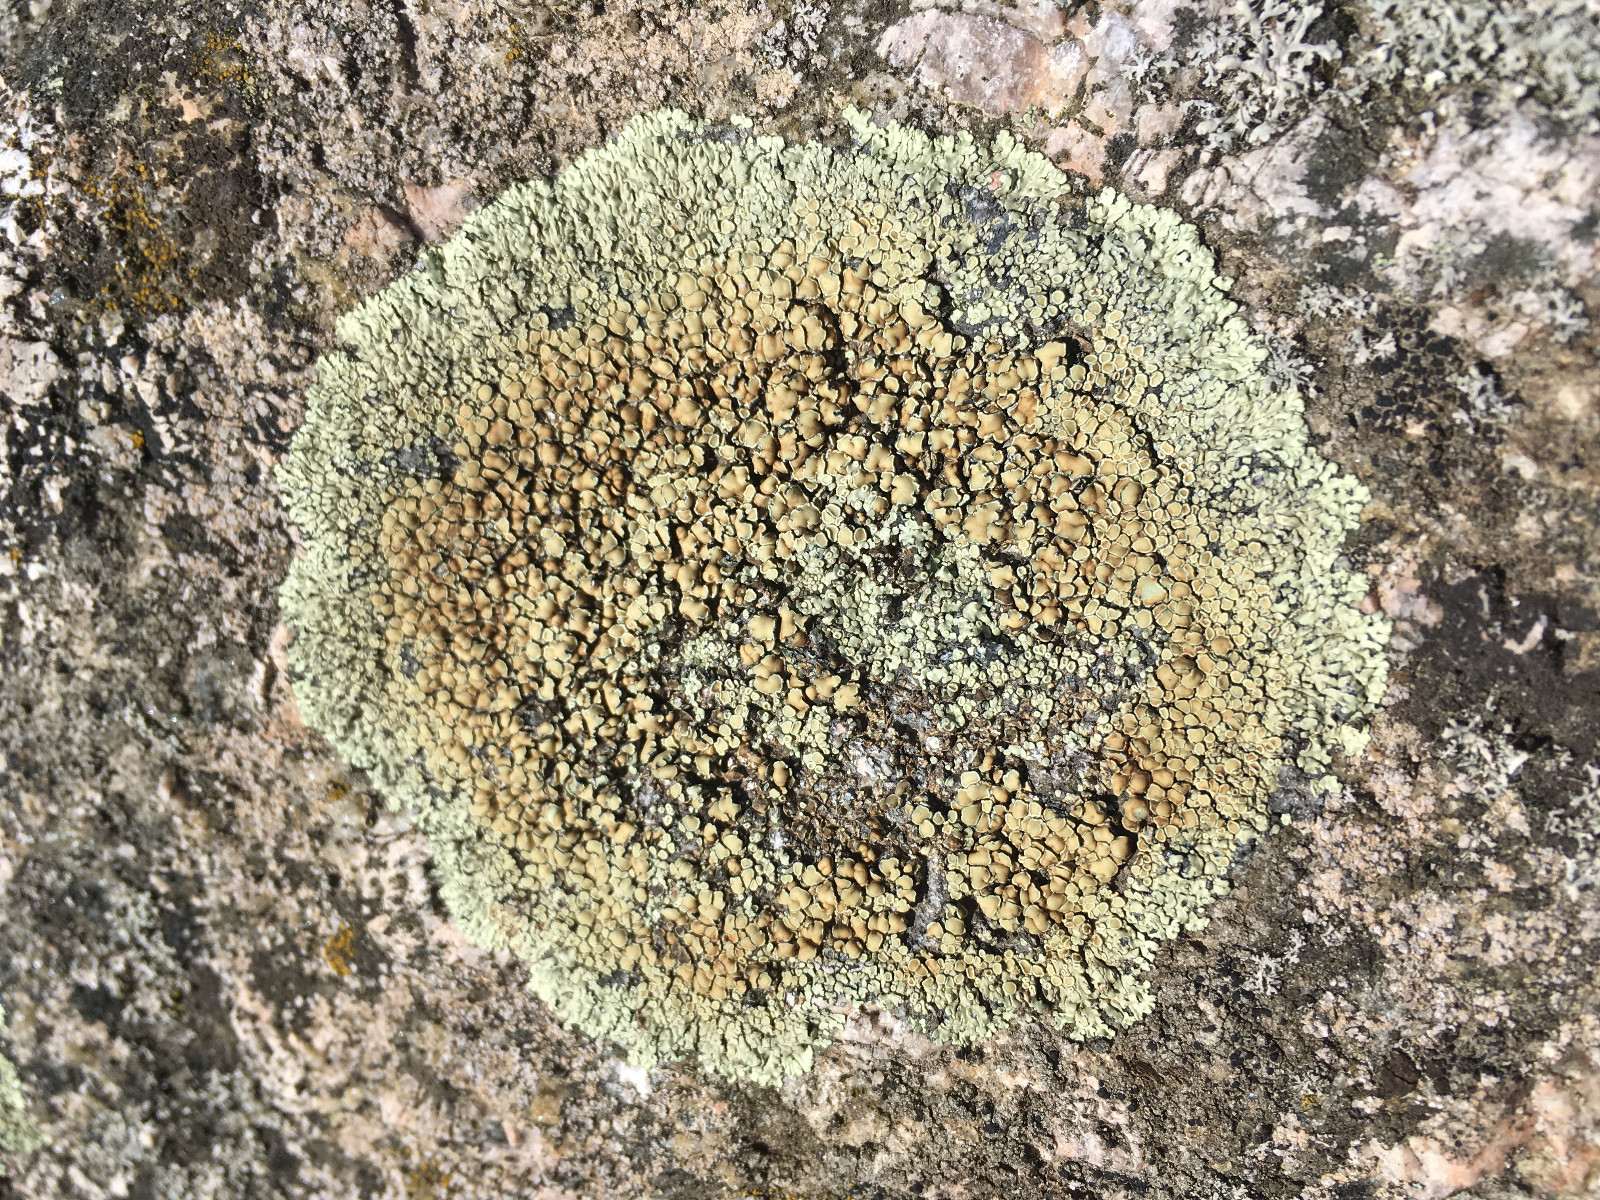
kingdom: Fungi
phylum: Ascomycota
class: Lecanoromycetes
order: Lecanorales
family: Lecanoraceae
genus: Protoparmeliopsis
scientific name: Protoparmeliopsis muralis
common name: randfliget kantskivelav
